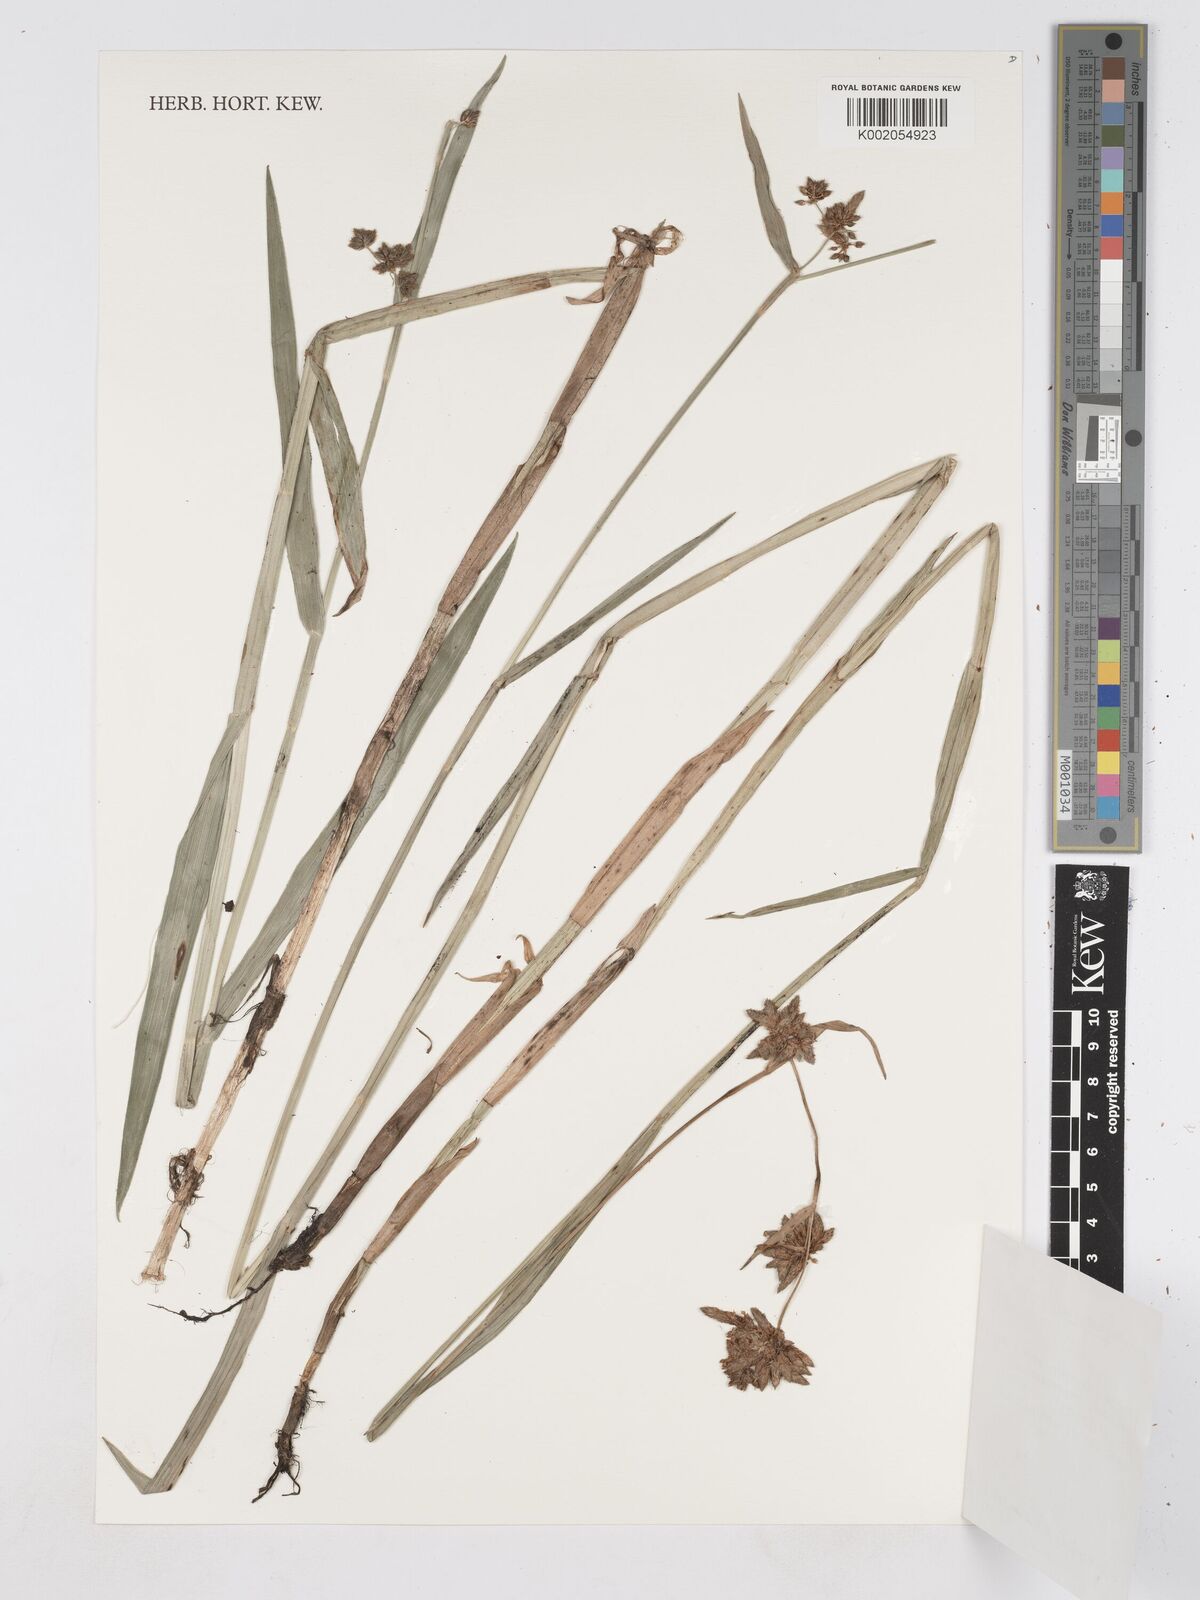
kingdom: Plantae
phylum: Tracheophyta
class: Liliopsida
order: Poales
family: Cyperaceae
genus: Fuirena
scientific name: Fuirena umbellata
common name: Yefen
